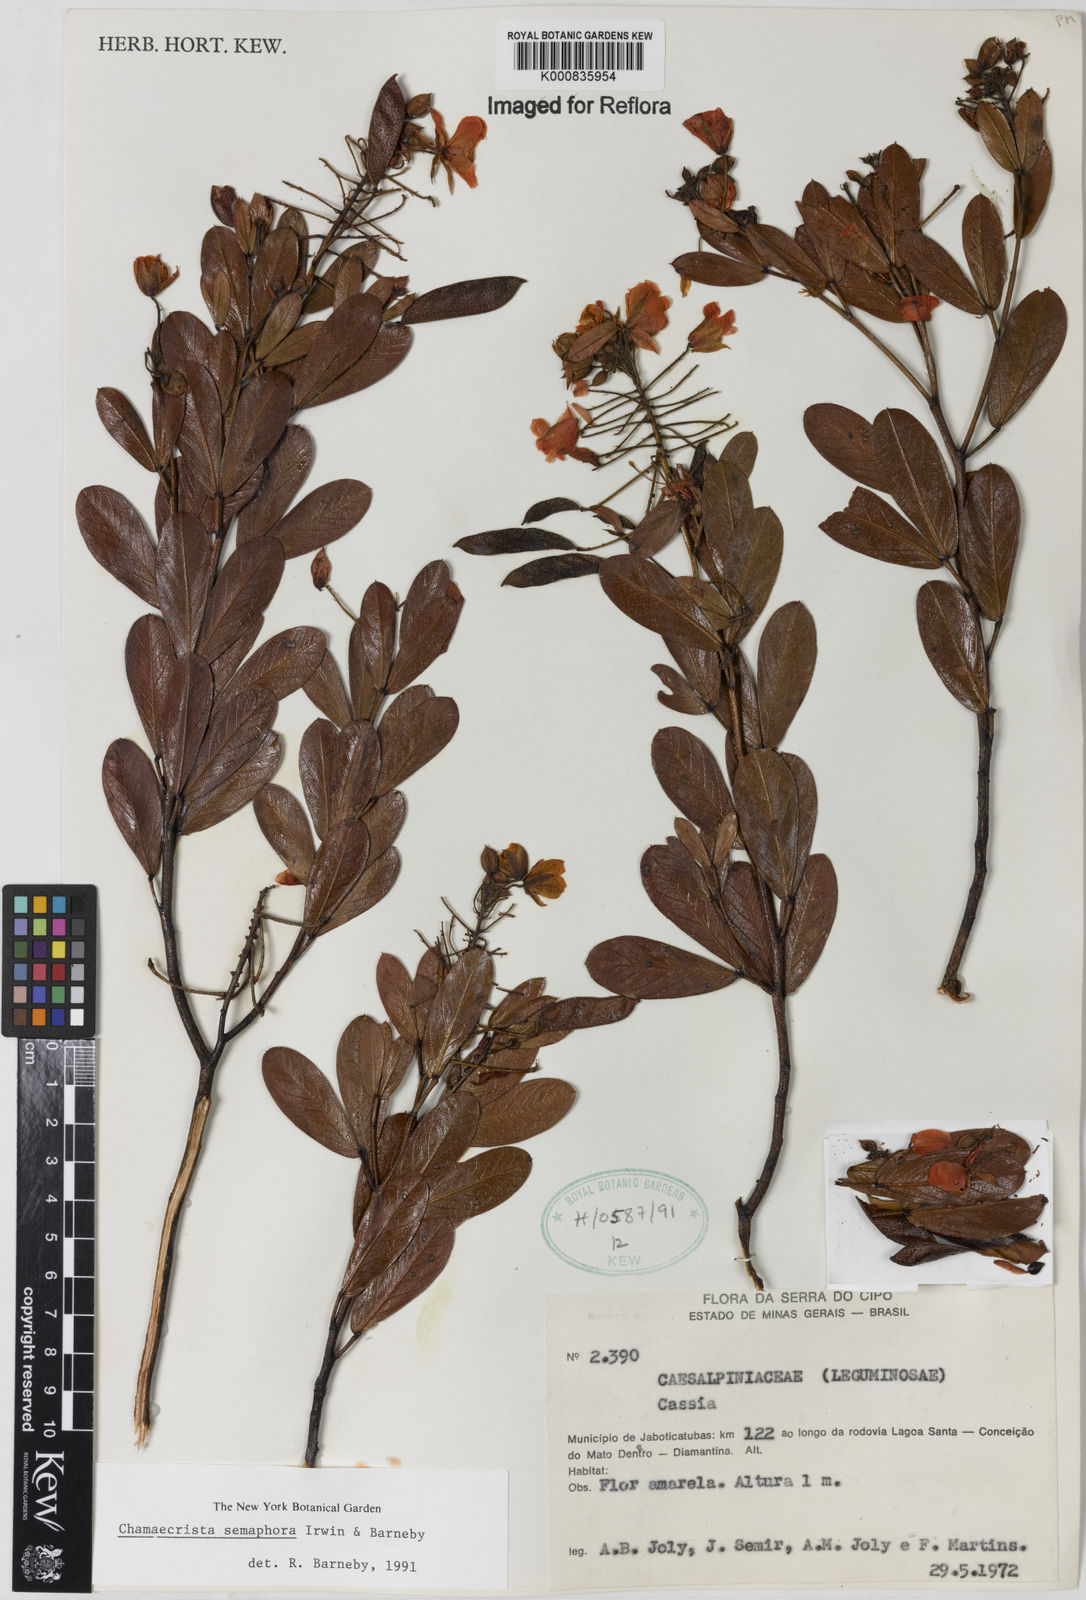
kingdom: Plantae
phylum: Tracheophyta
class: Magnoliopsida
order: Fabales
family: Fabaceae
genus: Chamaecrista
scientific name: Chamaecrista semaphora
